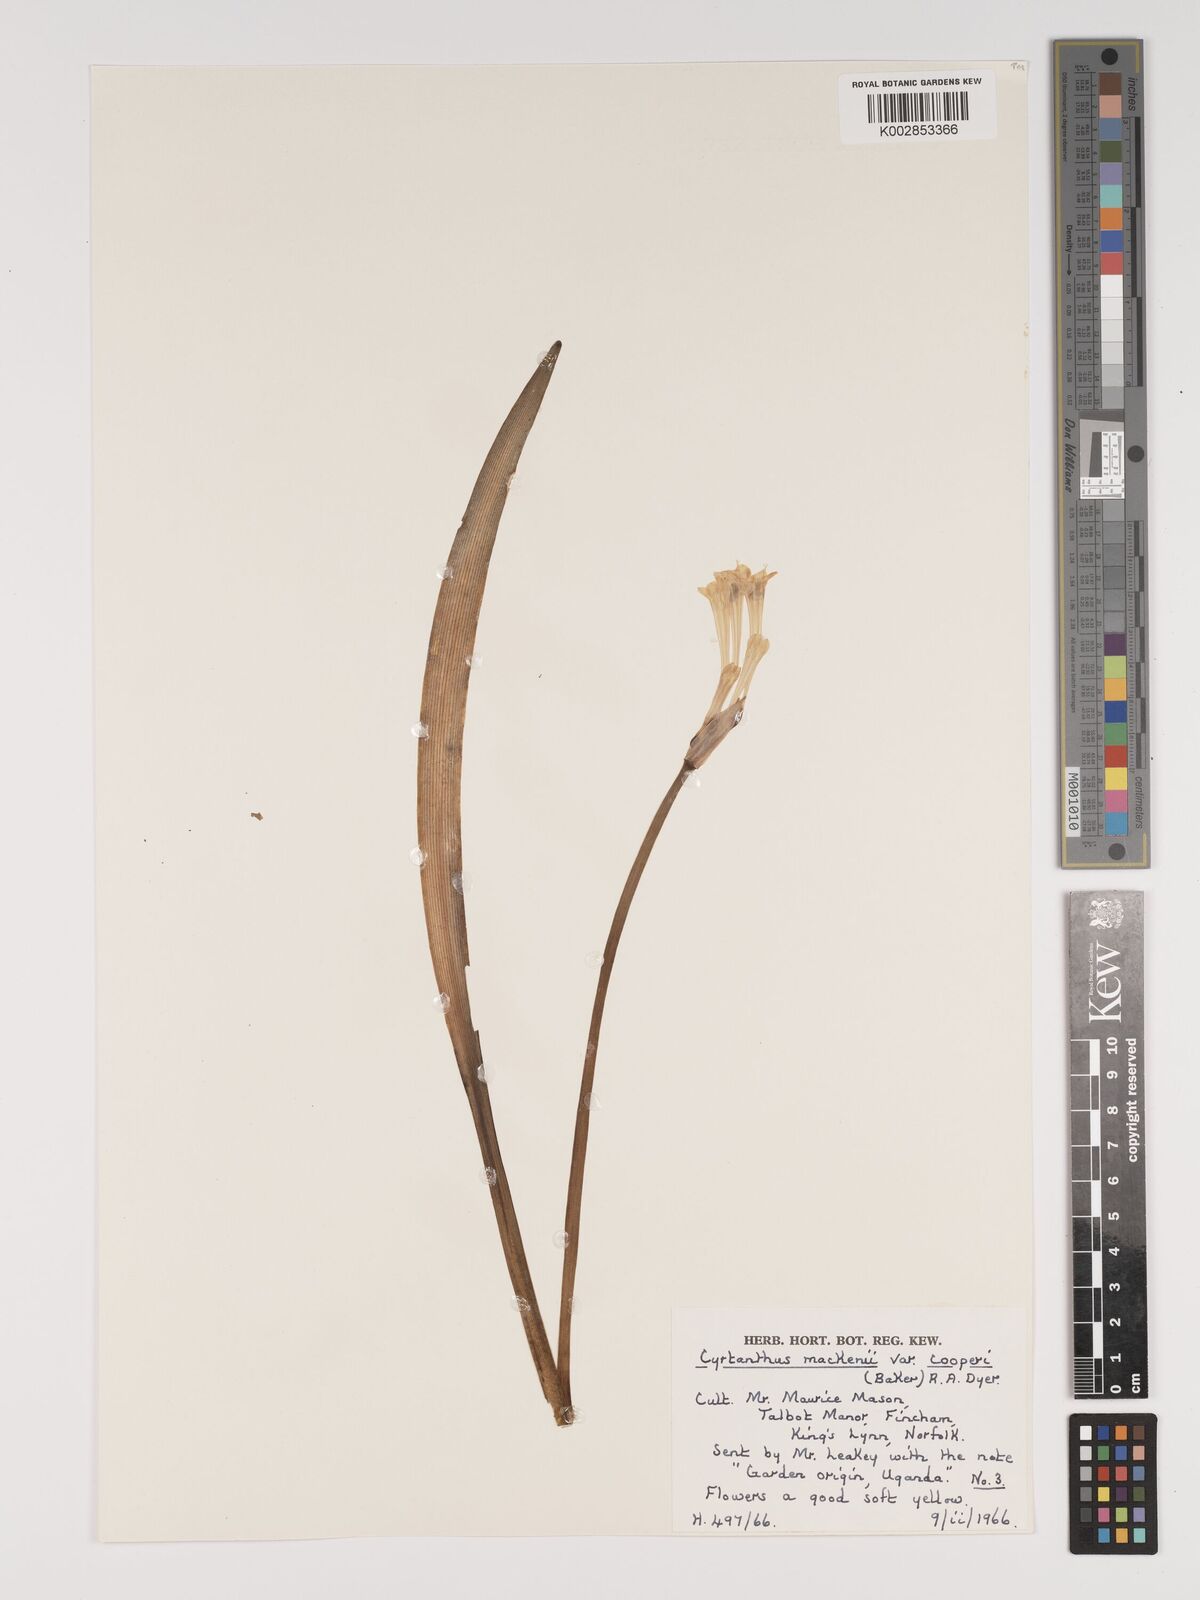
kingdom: Plantae
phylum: Tracheophyta
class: Liliopsida
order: Asparagales
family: Amaryllidaceae
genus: Cyrtanthus
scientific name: Cyrtanthus mackenii
